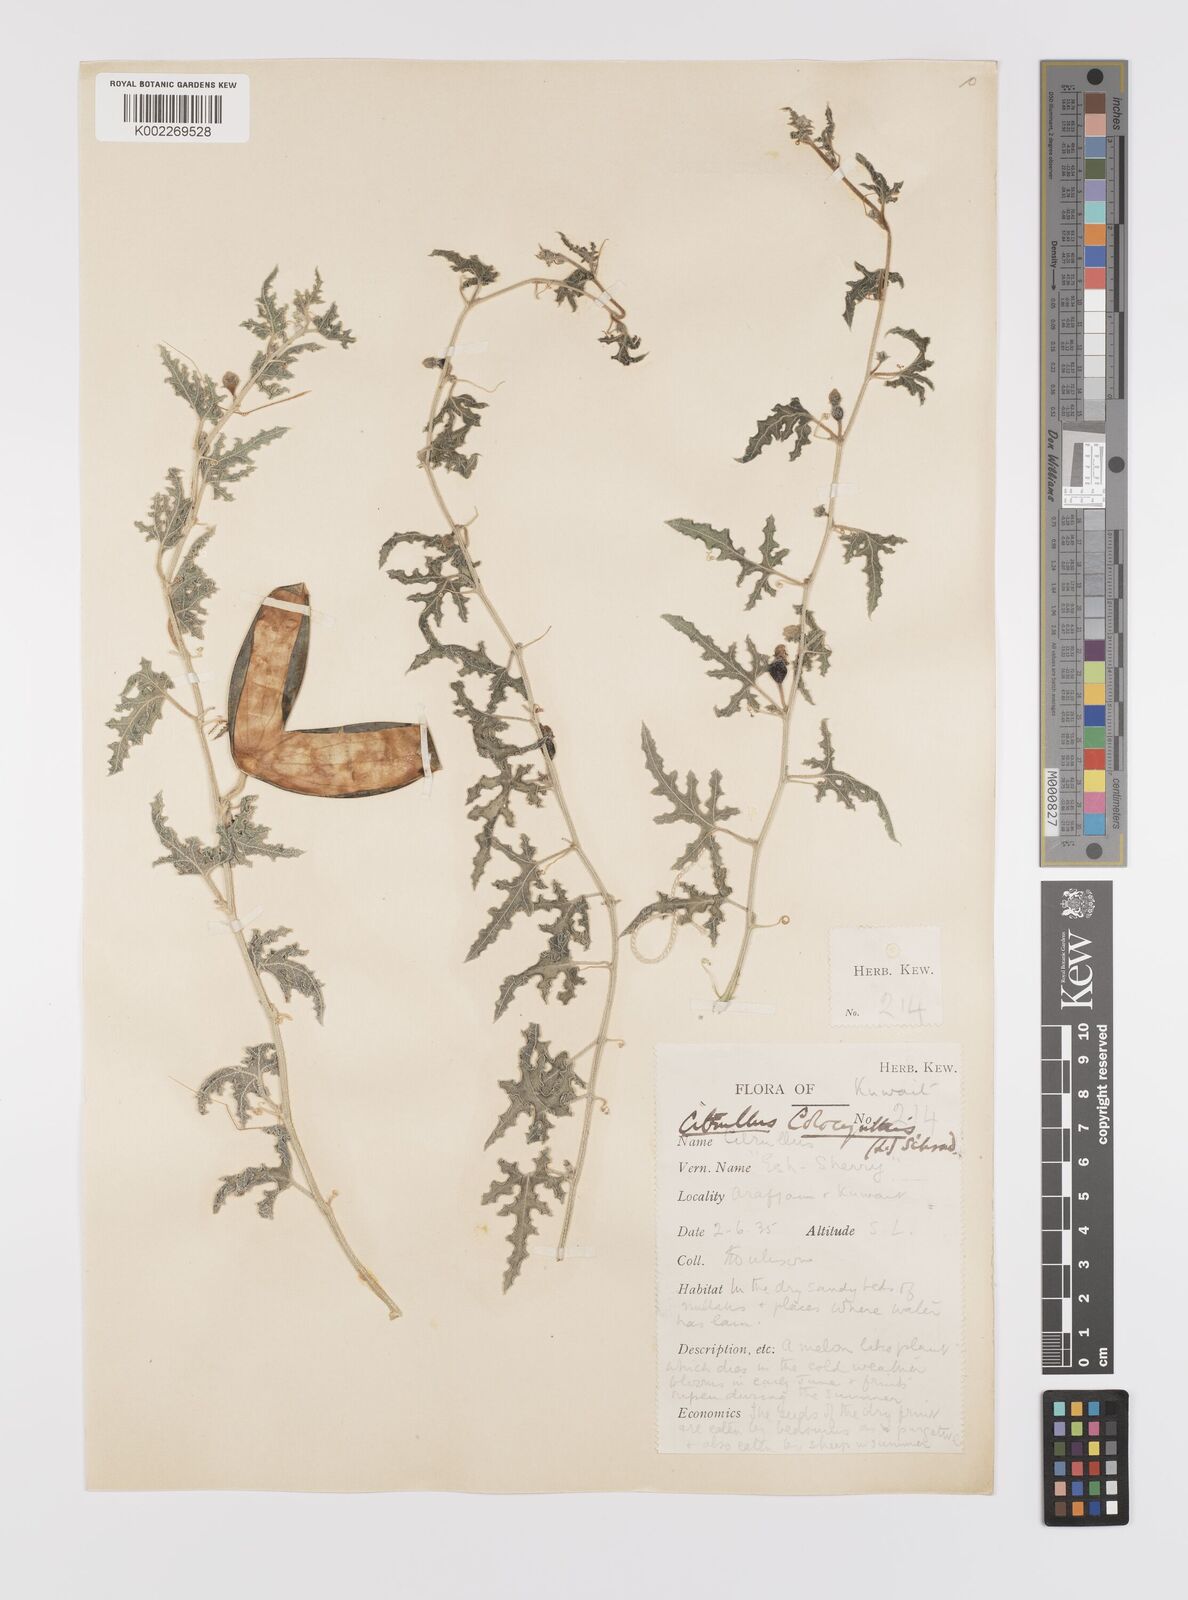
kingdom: Plantae
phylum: Tracheophyta
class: Magnoliopsida
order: Cucurbitales
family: Cucurbitaceae
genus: Citrullus
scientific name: Citrullus colocynthis
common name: Colocynth
